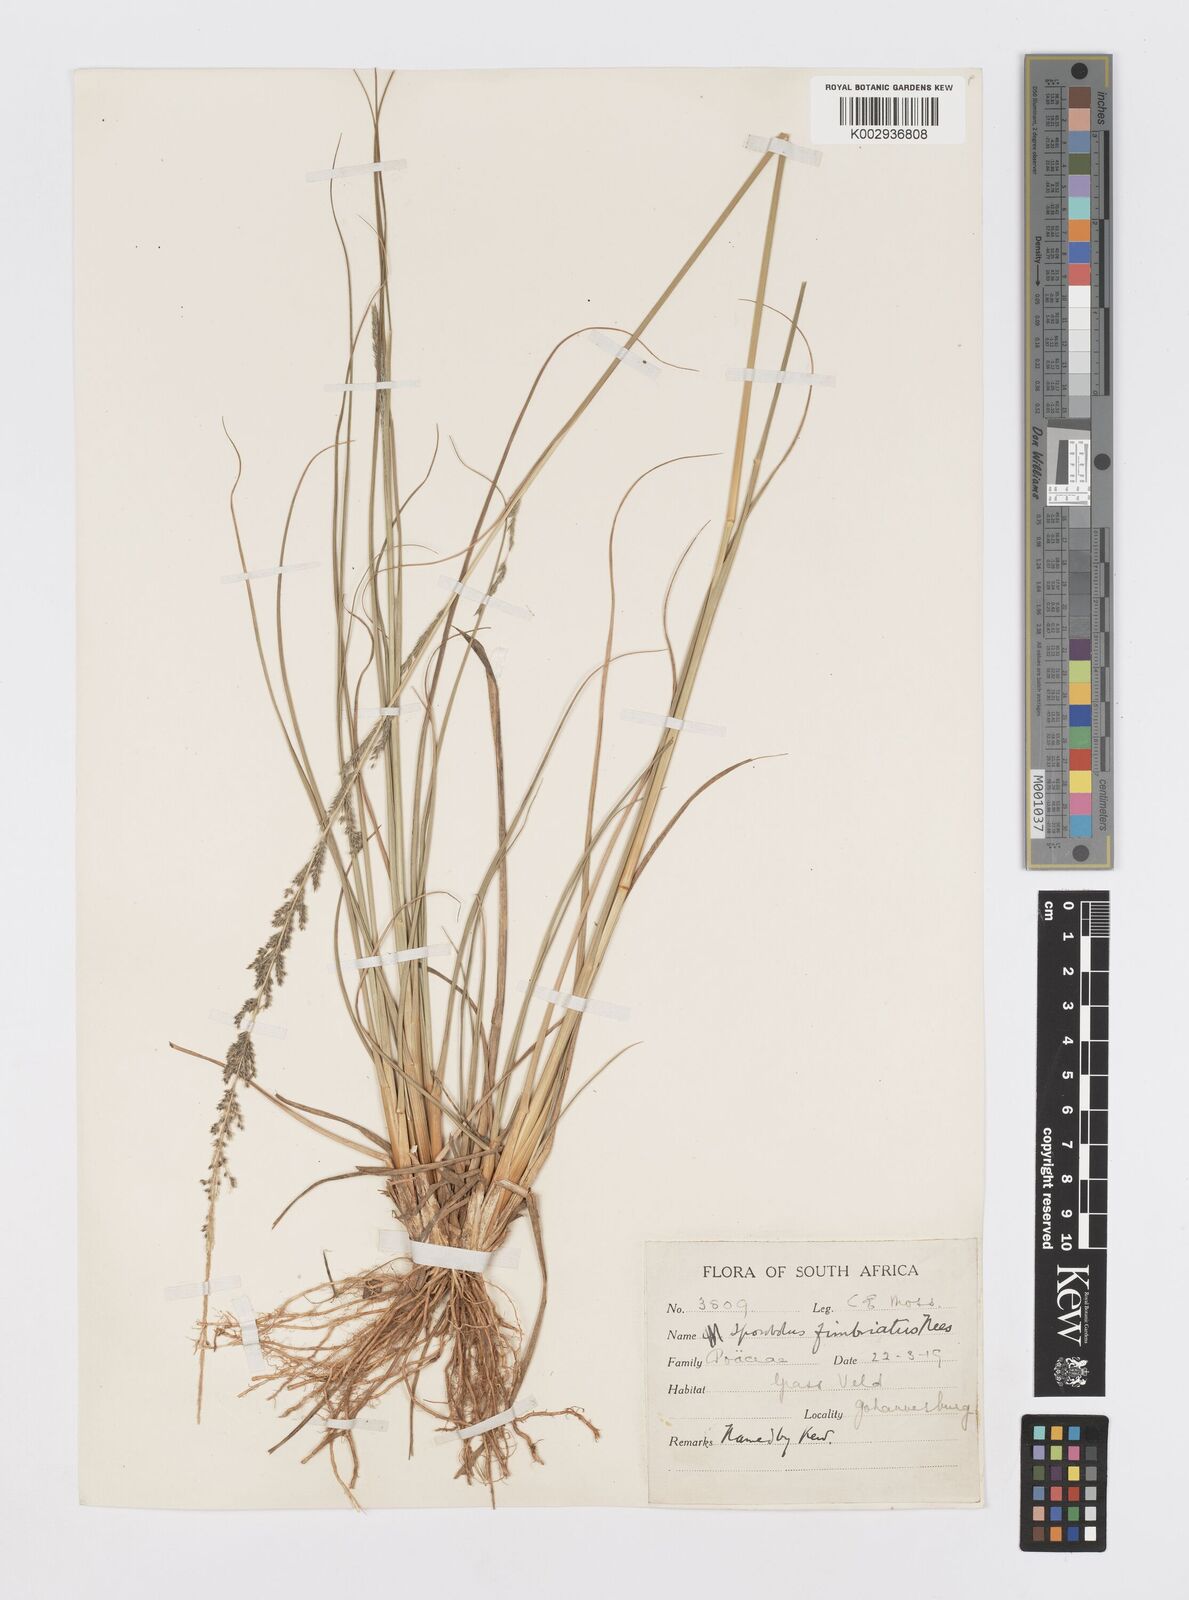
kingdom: Plantae
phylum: Tracheophyta
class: Liliopsida
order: Poales
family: Poaceae
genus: Sporobolus
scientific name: Sporobolus africanus
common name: African dropseed
